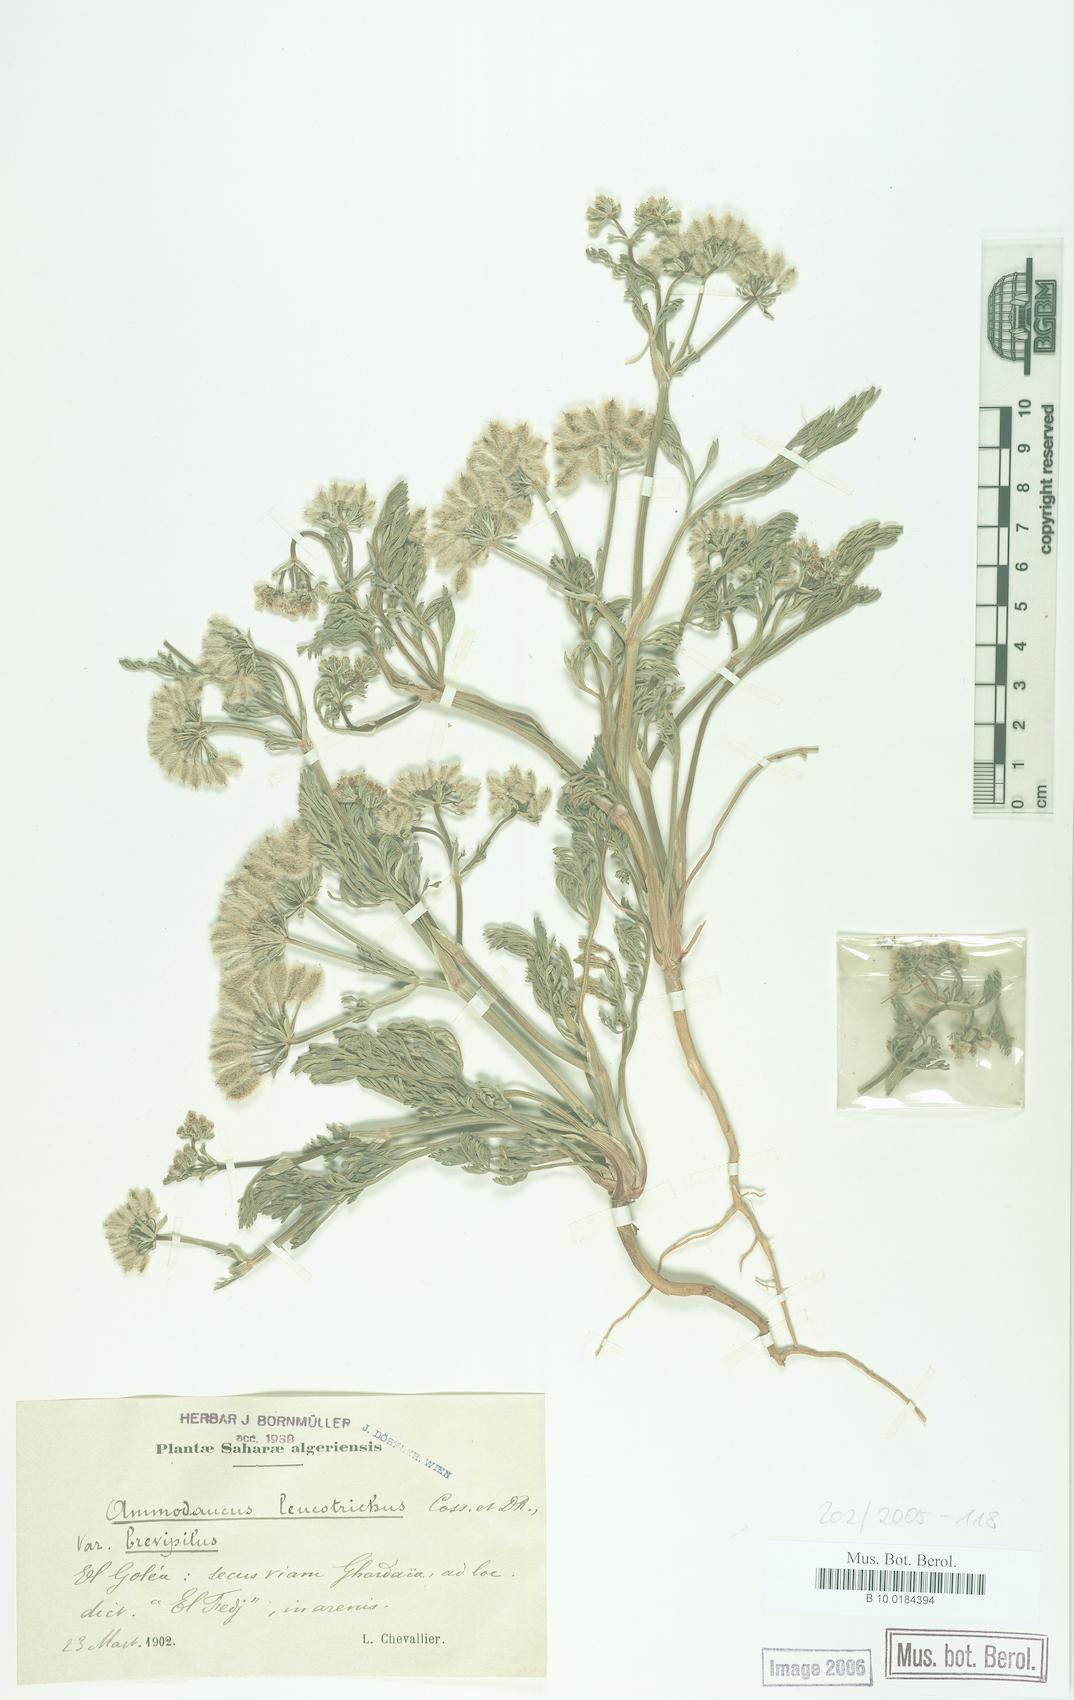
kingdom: Plantae
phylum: Tracheophyta
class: Magnoliopsida
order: Apiales
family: Apiaceae
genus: Ammodaucus
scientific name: Ammodaucus leucotrichus
